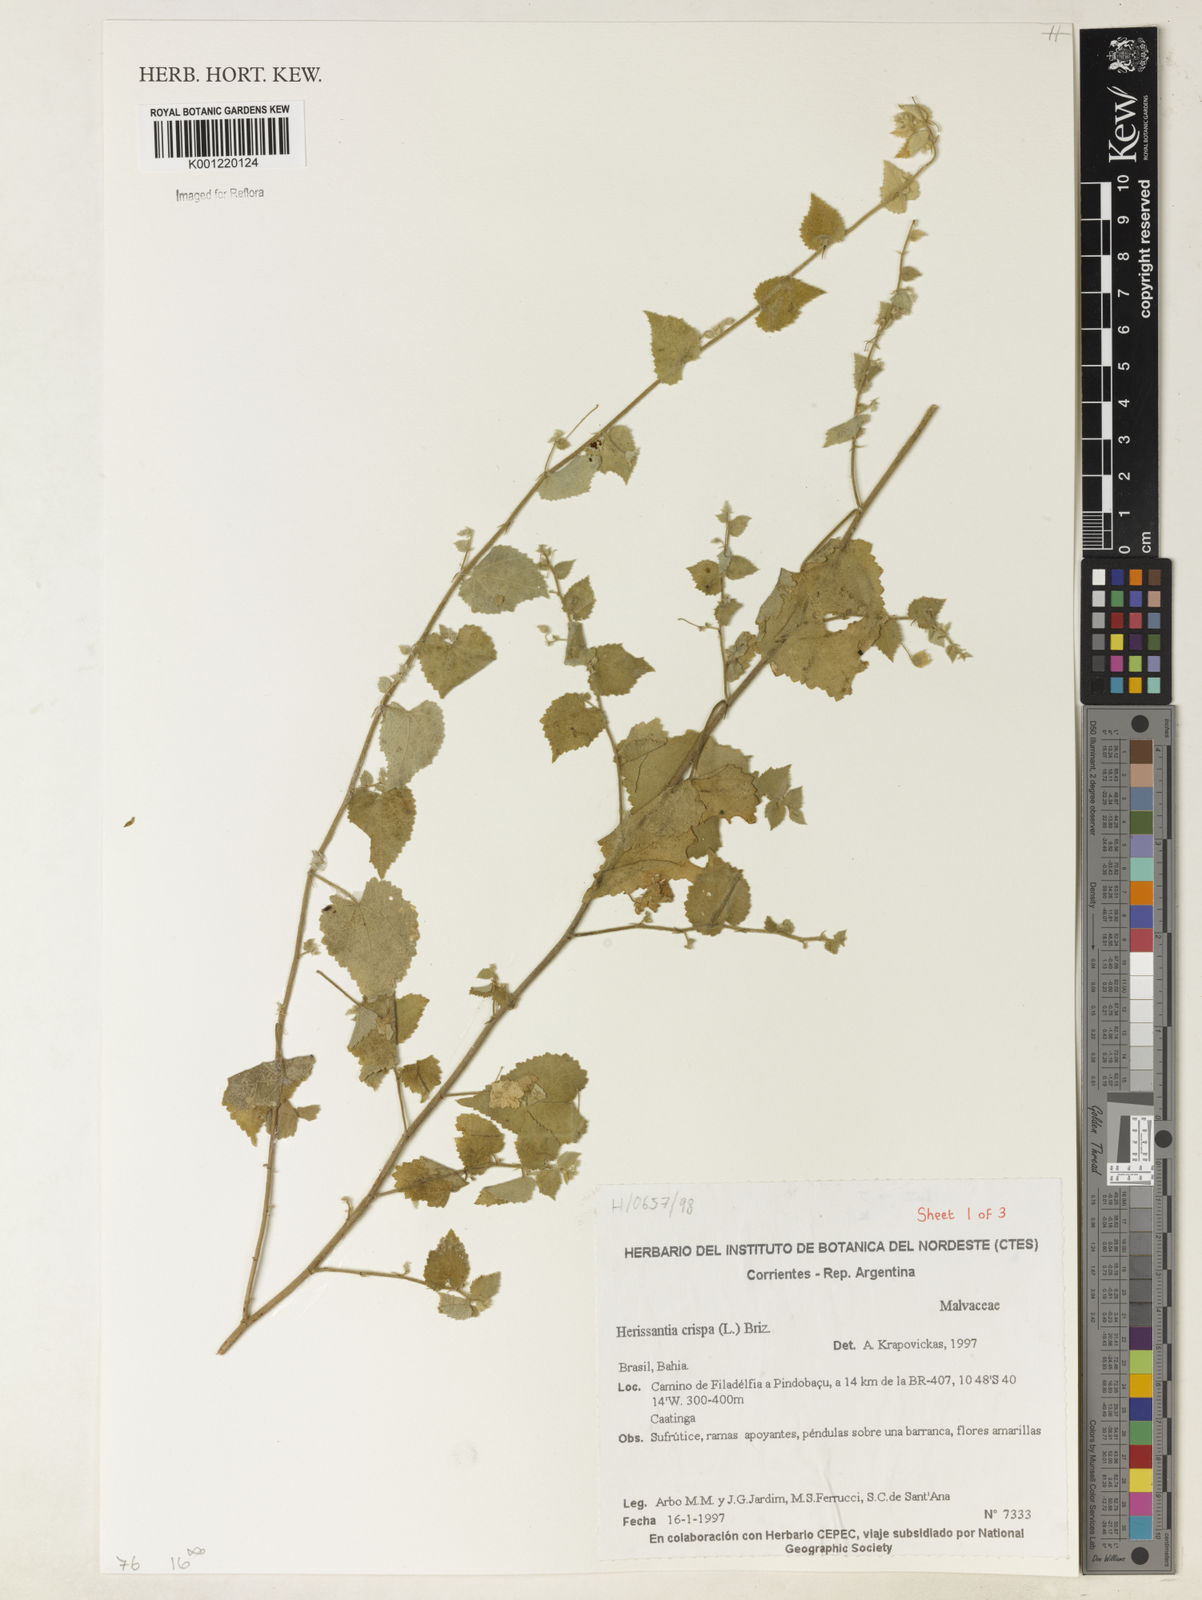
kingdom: Plantae
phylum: Tracheophyta
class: Magnoliopsida
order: Malvales
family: Malvaceae
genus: Herissantia
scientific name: Herissantia crispa
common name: Bladdermallow
